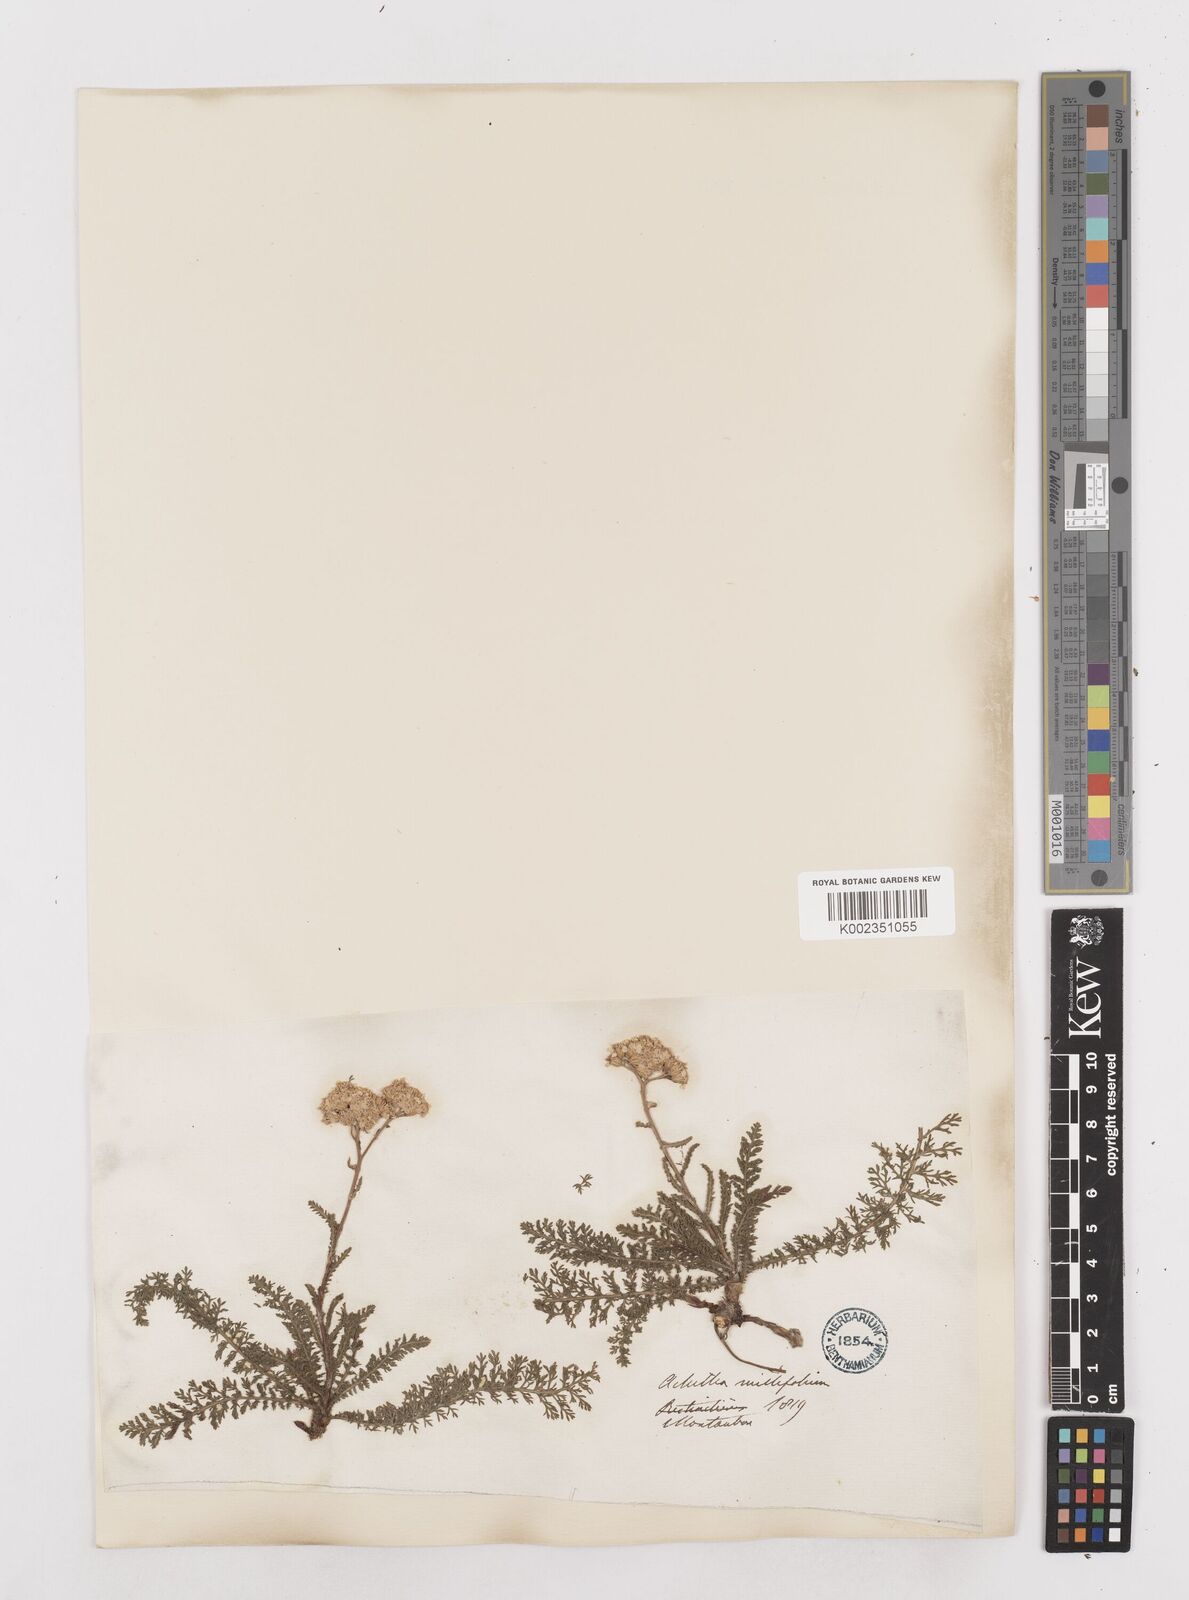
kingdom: Plantae
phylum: Tracheophyta
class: Magnoliopsida
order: Asterales
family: Asteraceae
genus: Achillea
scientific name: Achillea millefolium
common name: Yarrow
